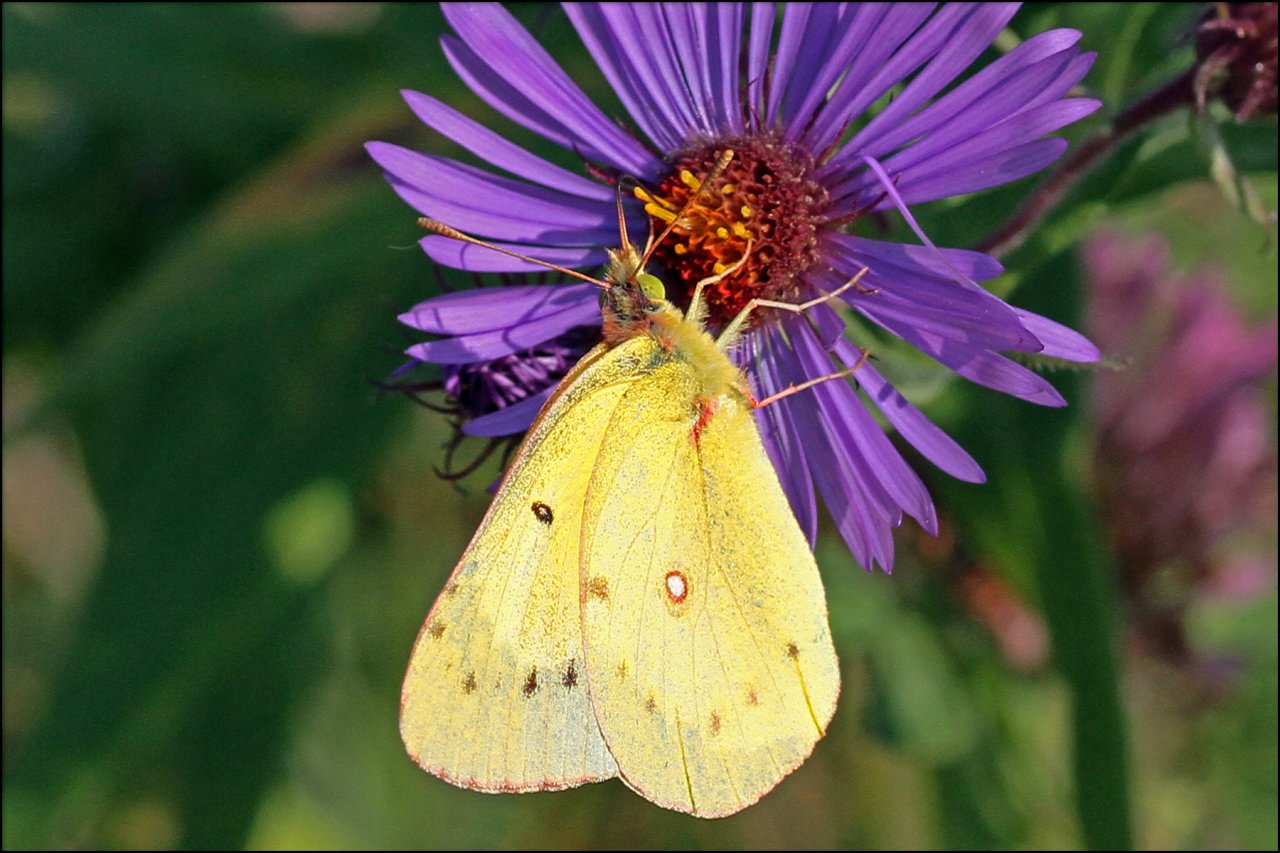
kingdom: Animalia
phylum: Arthropoda
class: Insecta
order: Lepidoptera
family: Pieridae
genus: Colias
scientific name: Colias philodice
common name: Clouded Sulphur
